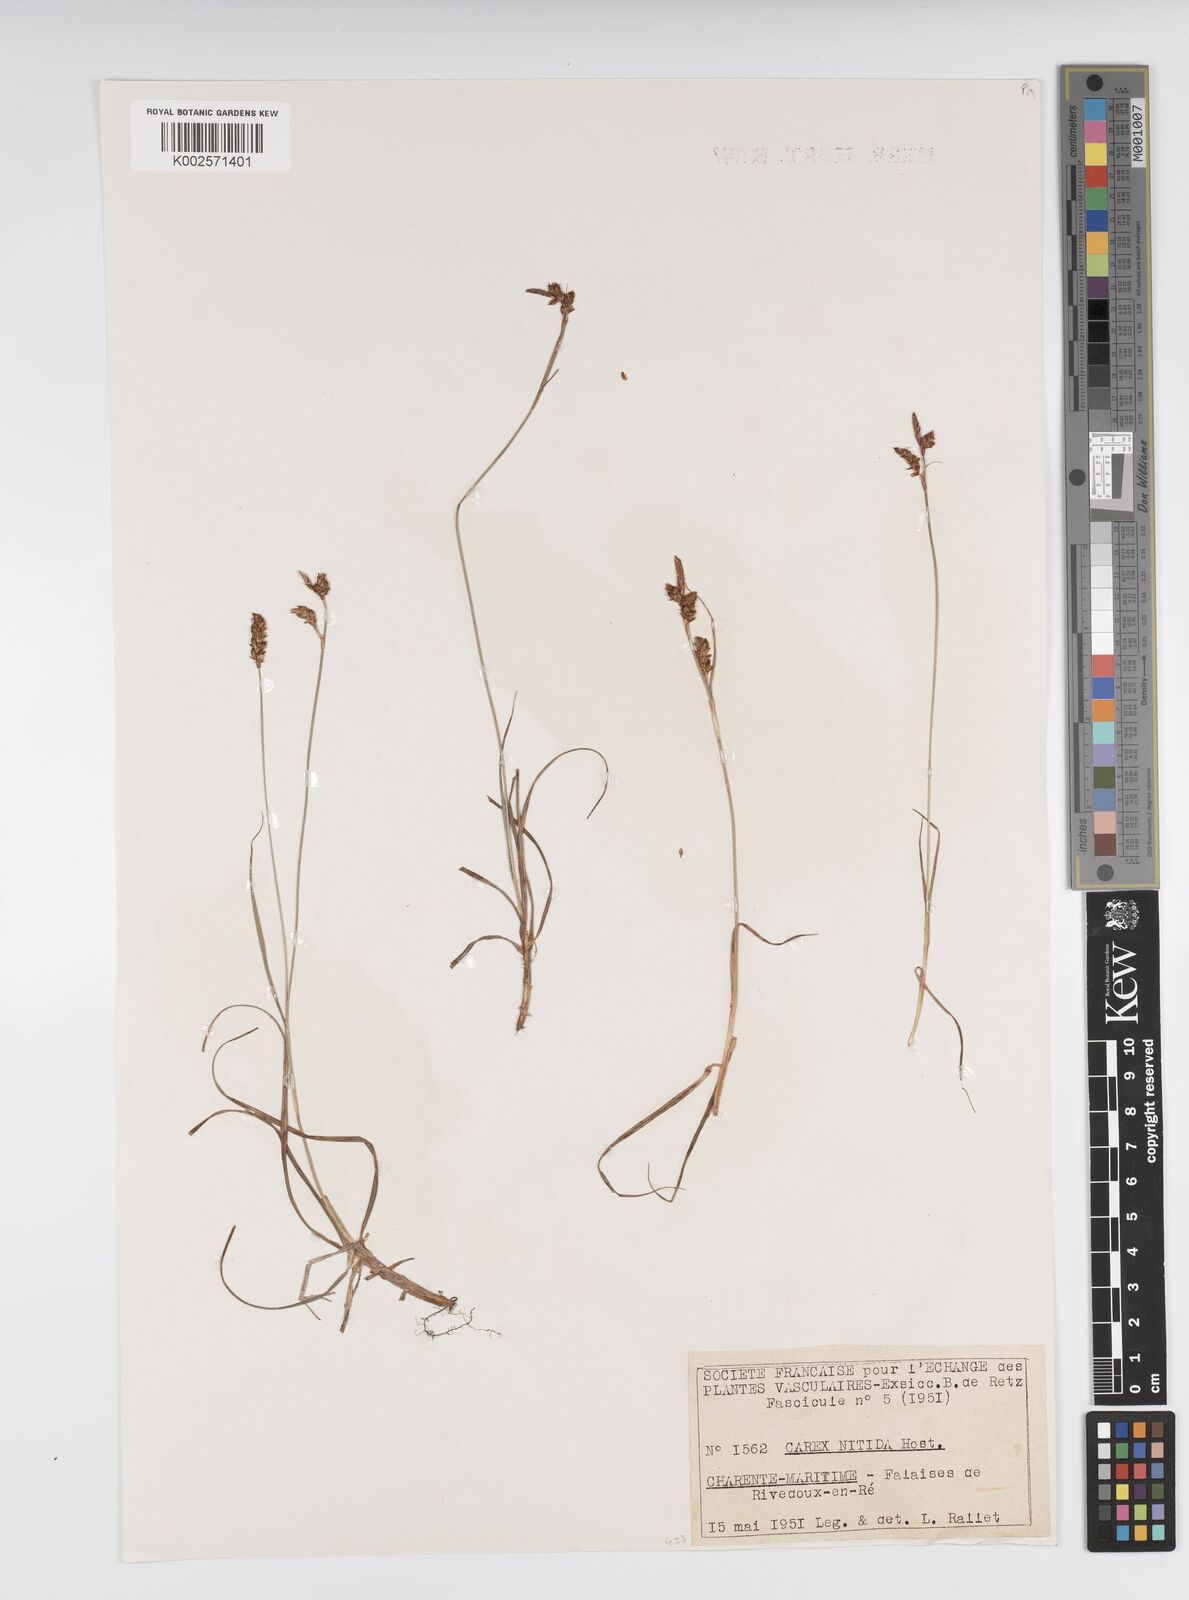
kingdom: Plantae
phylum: Tracheophyta
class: Liliopsida
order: Poales
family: Cyperaceae
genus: Carex
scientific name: Carex liparocarpos
